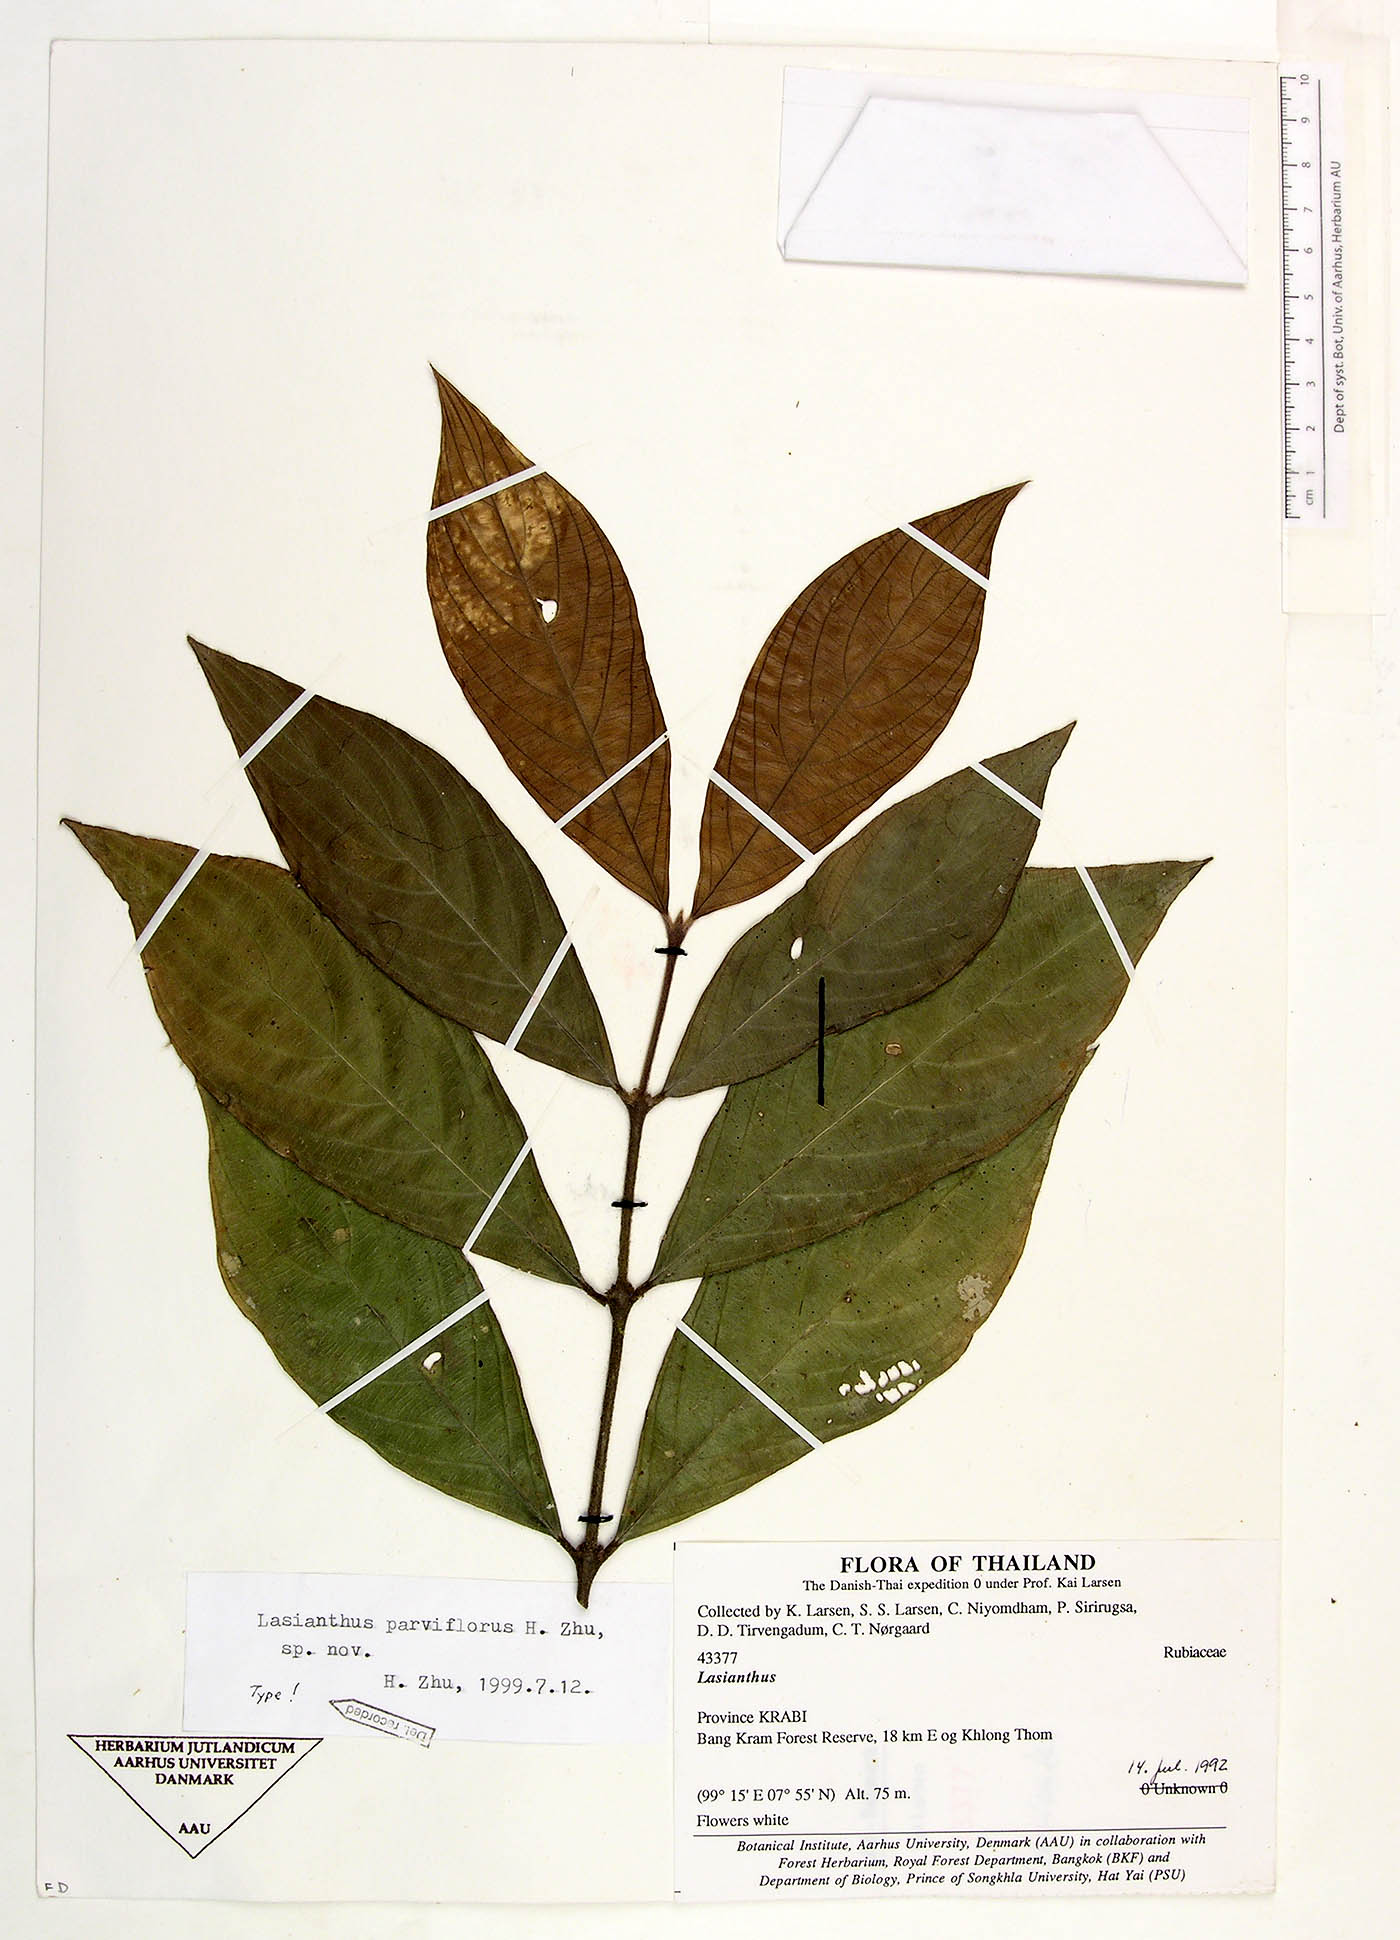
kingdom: Plantae
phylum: Tracheophyta
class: Magnoliopsida
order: Gentianales
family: Rubiaceae
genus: Lasianthus
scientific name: Lasianthus parviflorus
